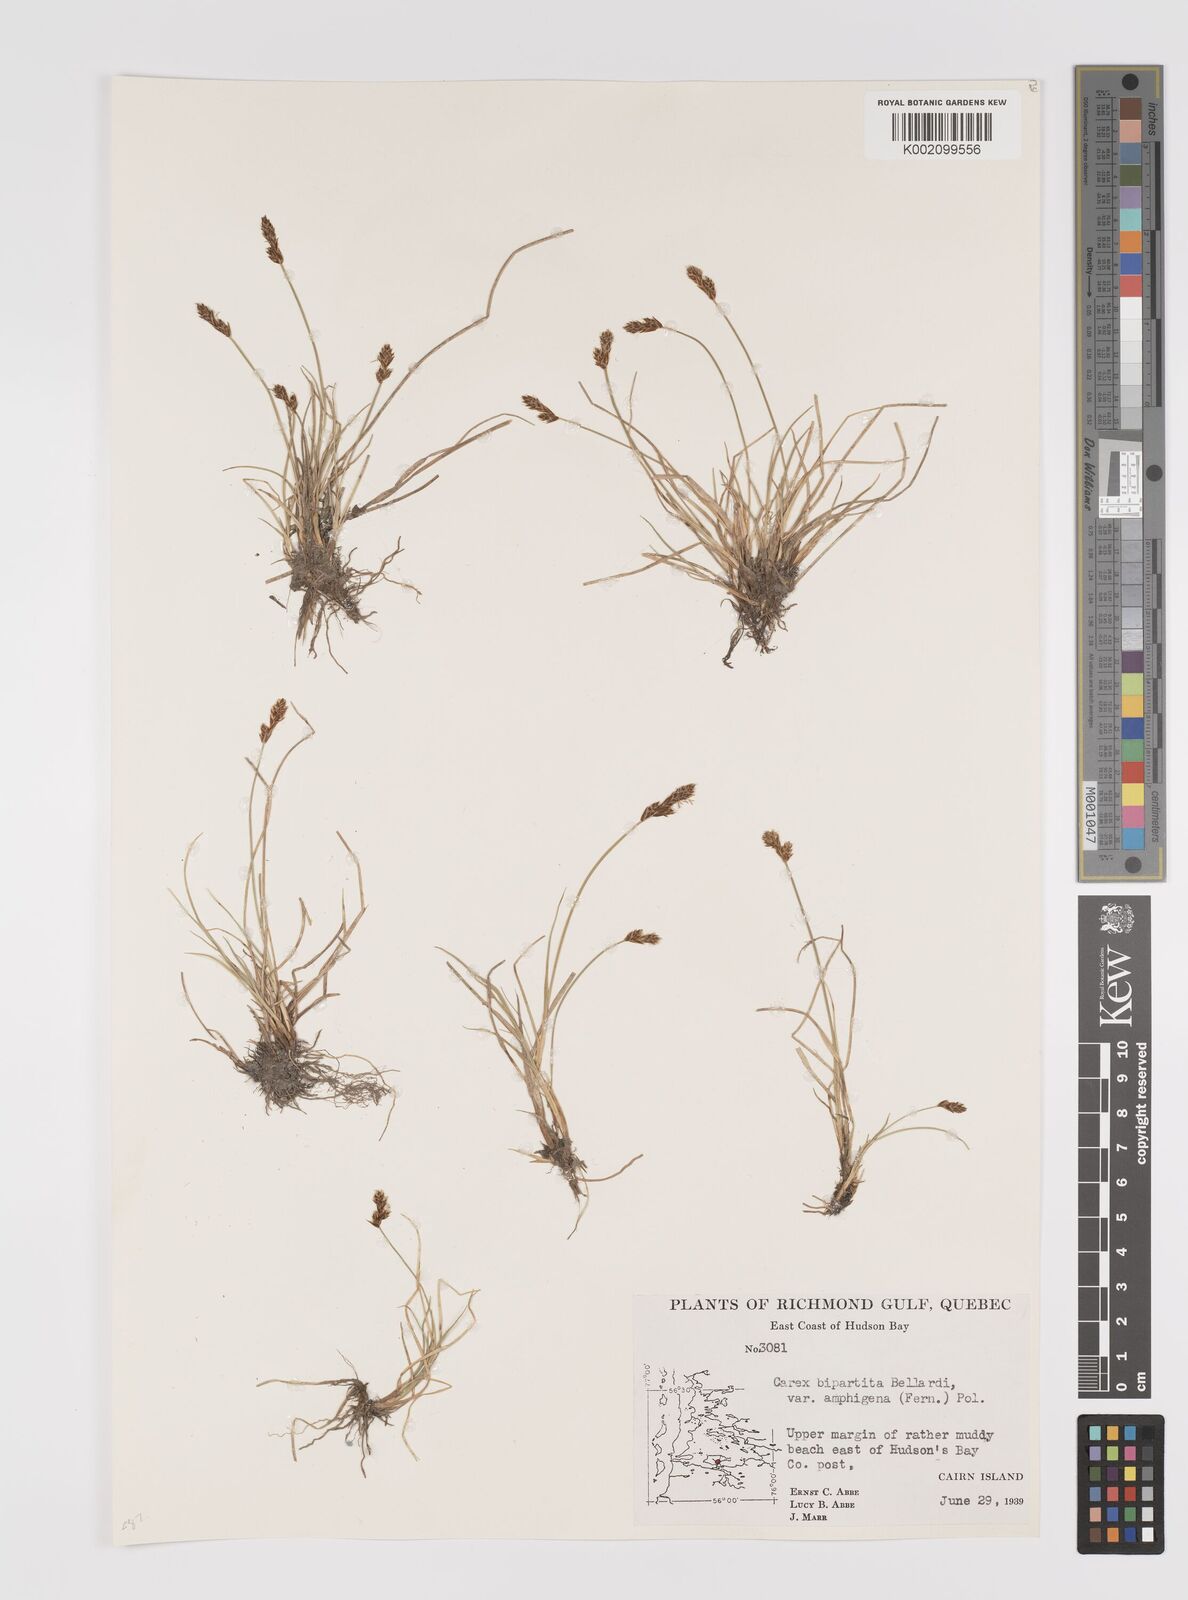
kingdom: Plantae
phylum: Tracheophyta
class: Liliopsida
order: Poales
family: Cyperaceae
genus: Carex
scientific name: Carex lachenalii
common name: Hare's-foot sedge
